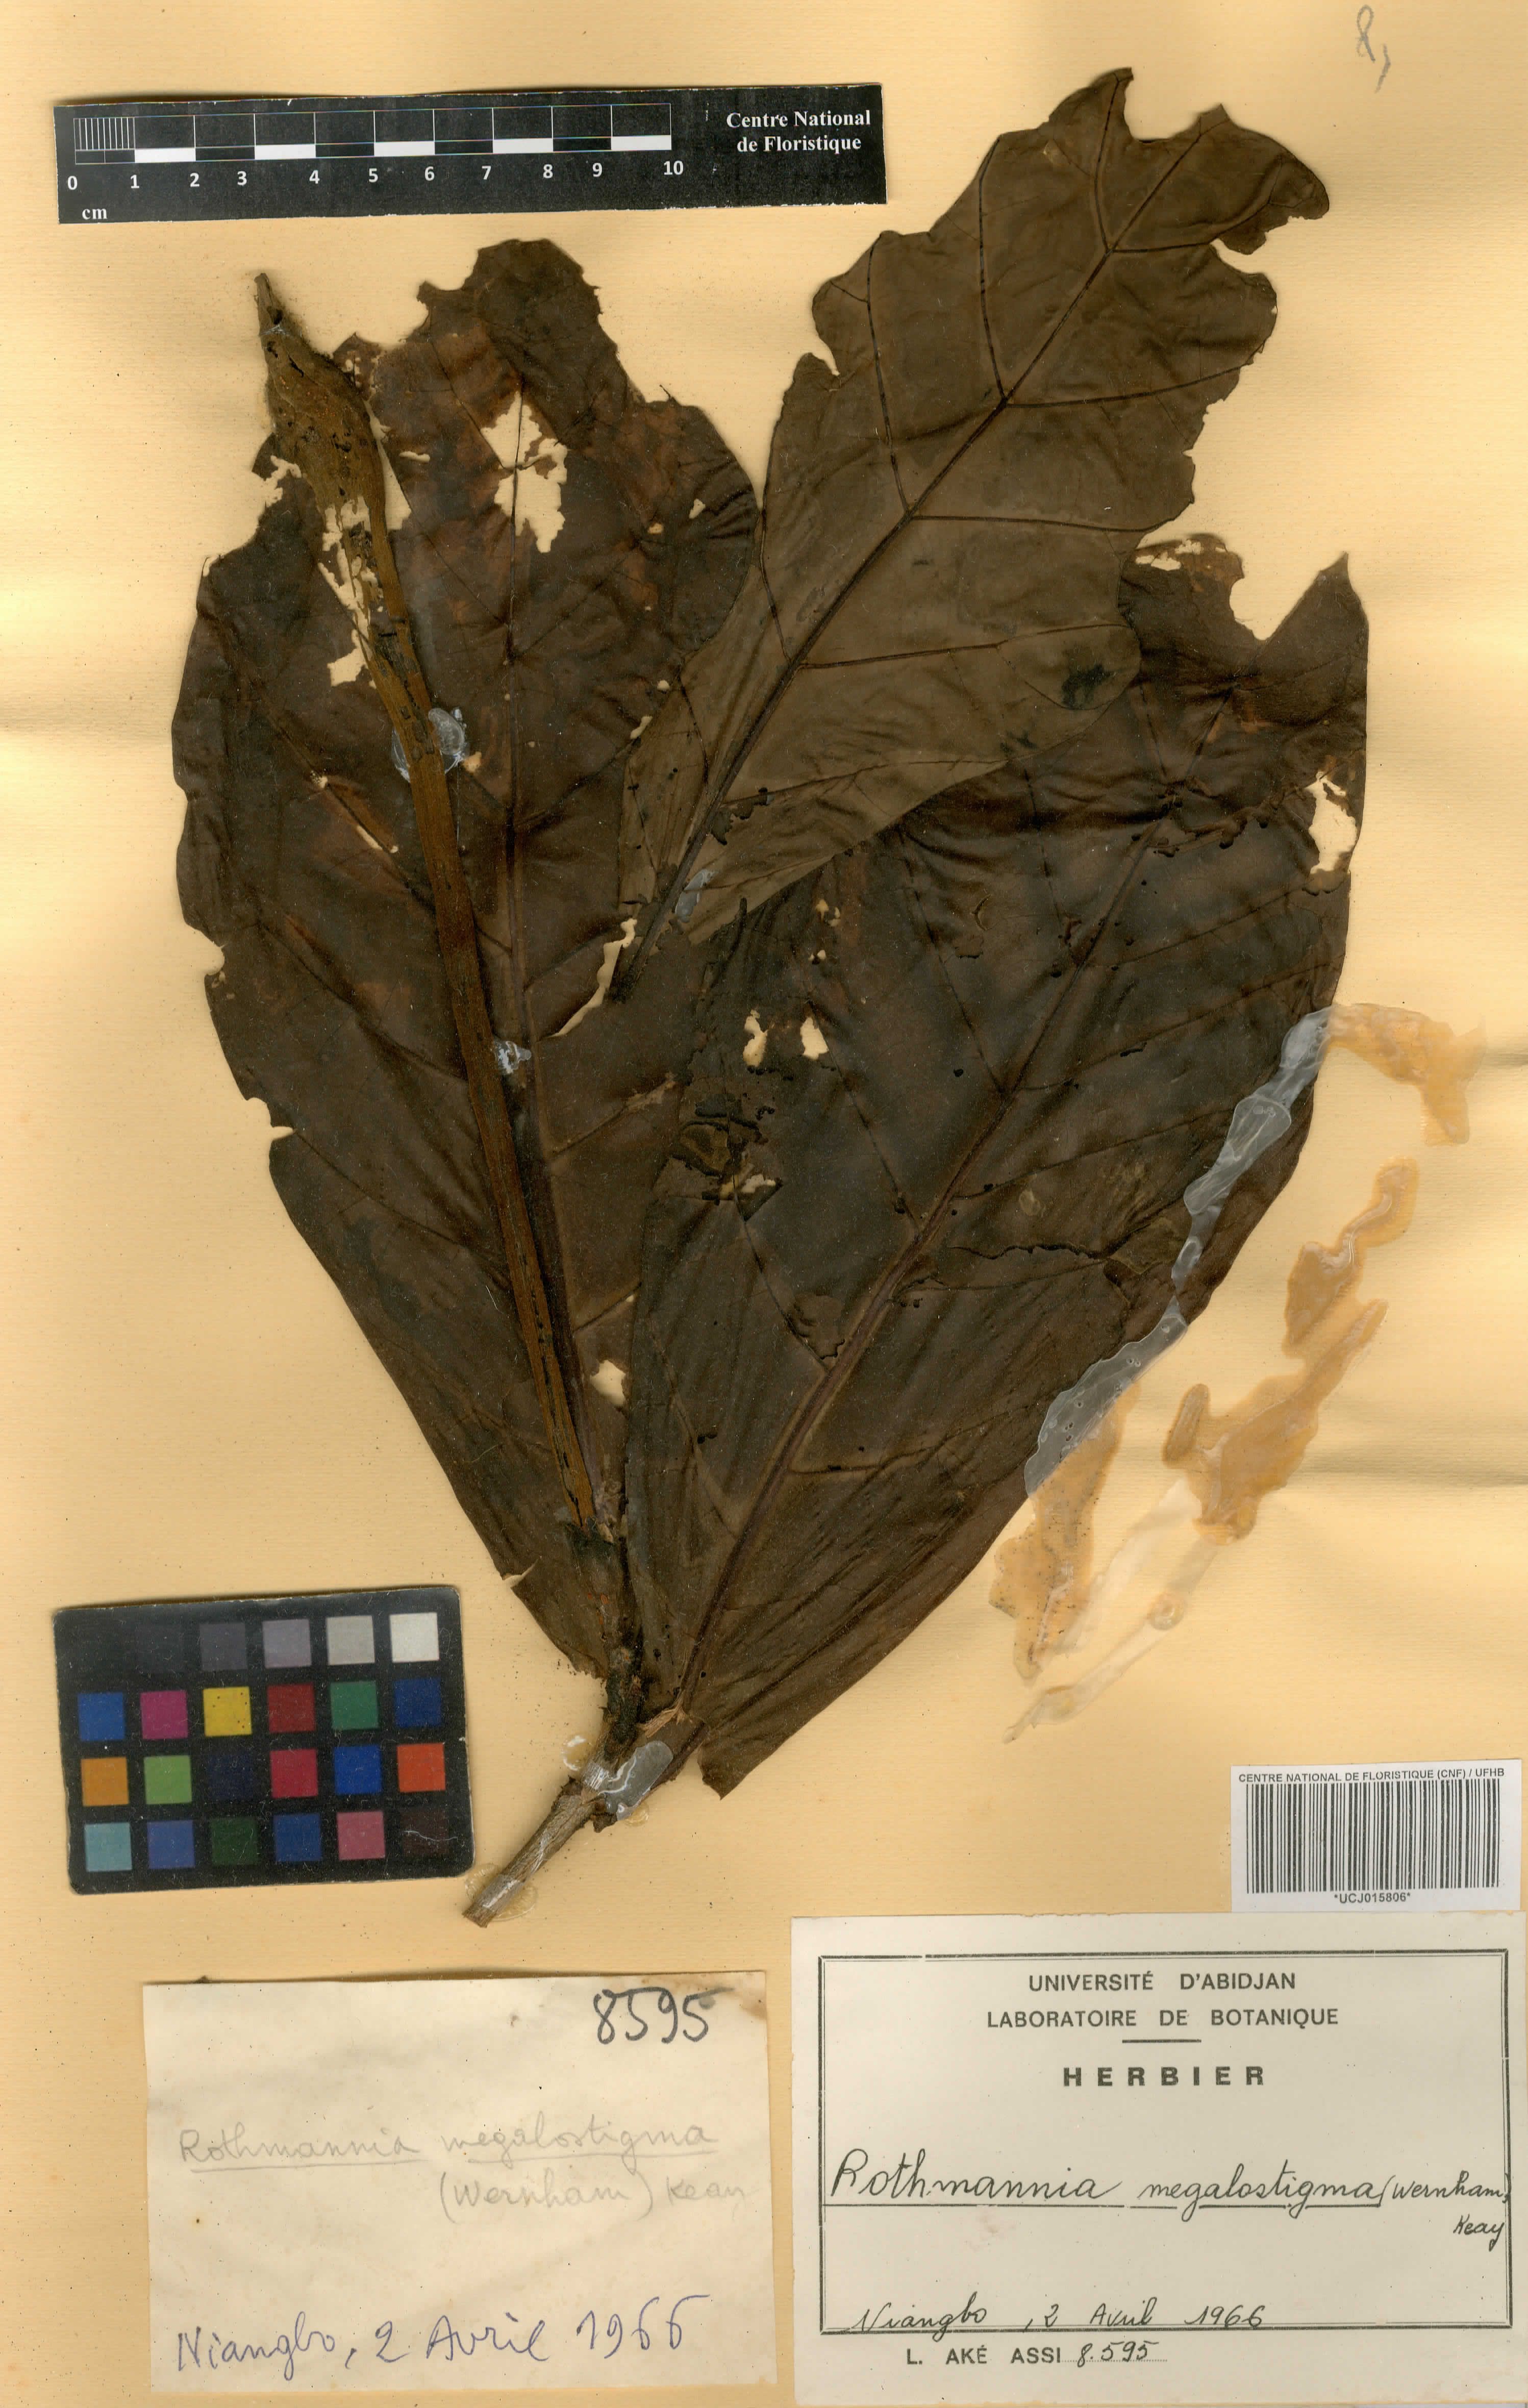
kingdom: Plantae
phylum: Tracheophyta
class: Magnoliopsida
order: Gentianales
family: Rubiaceae
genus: Rothmannia
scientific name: Rothmannia munsae
